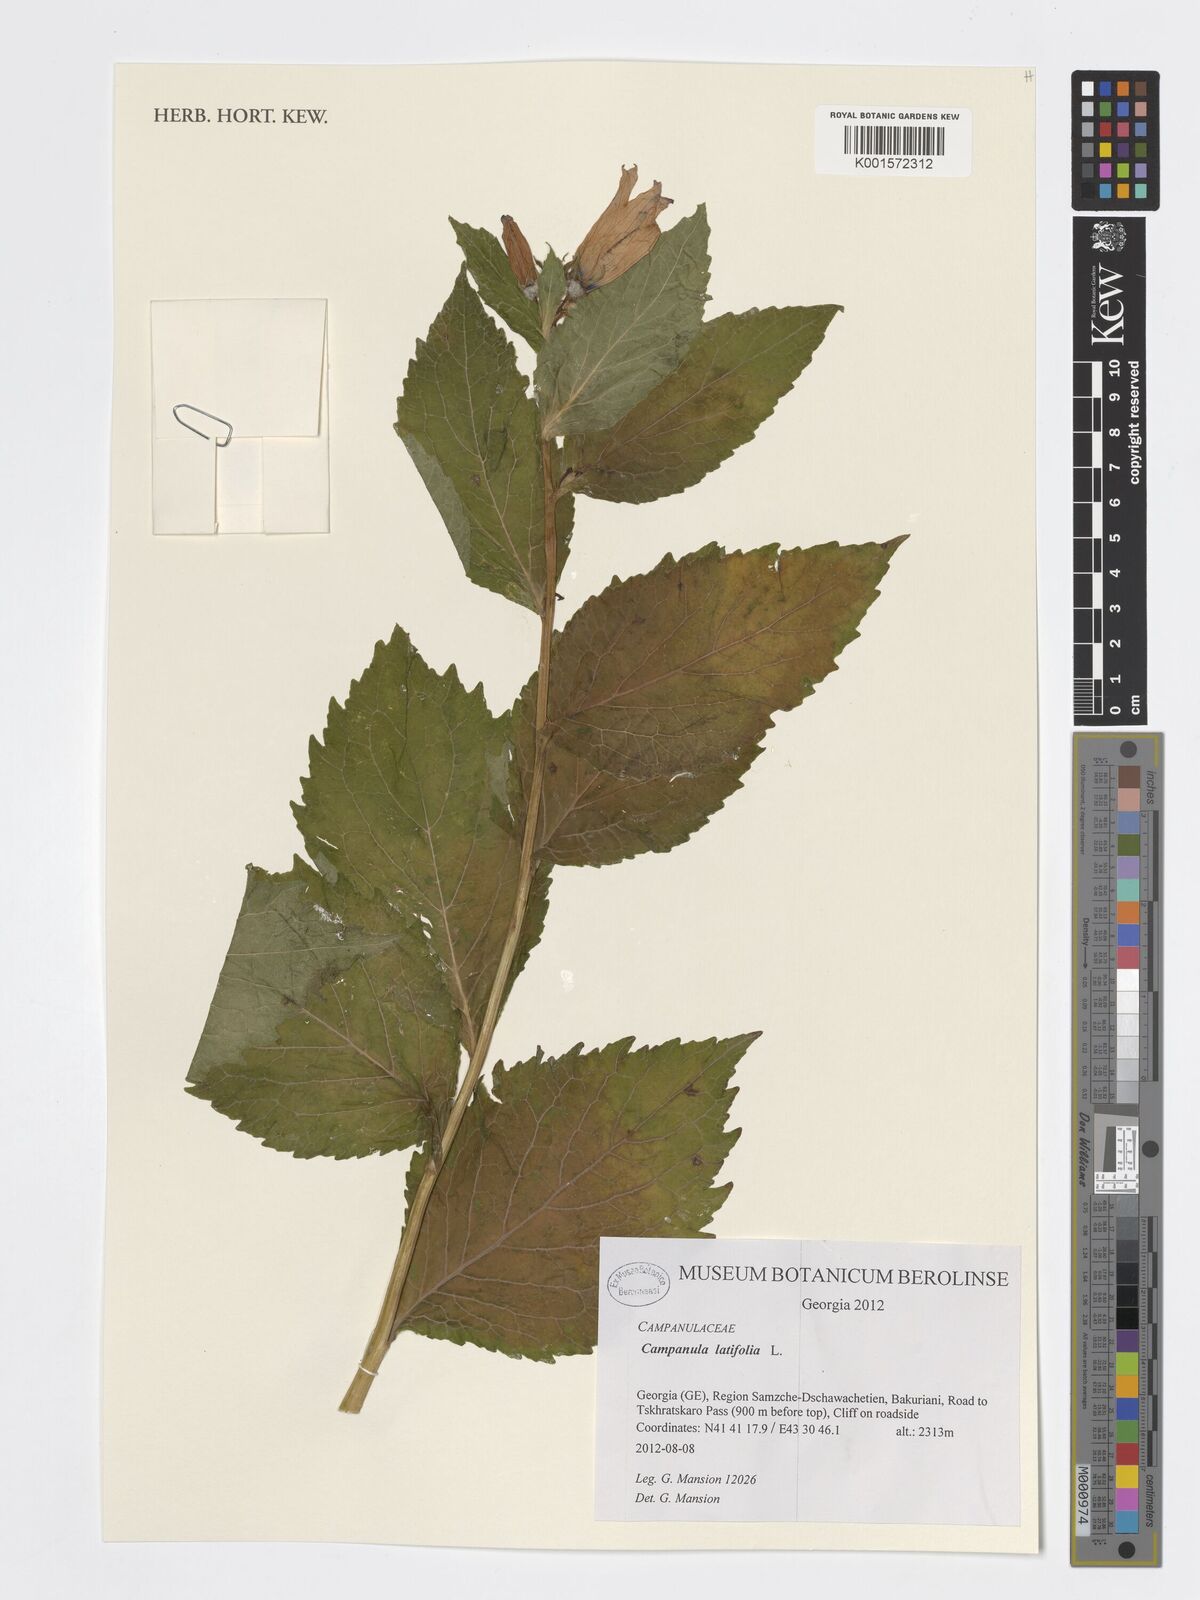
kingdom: Plantae
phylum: Tracheophyta
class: Magnoliopsida
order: Asterales
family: Campanulaceae
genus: Campanula
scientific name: Campanula latifolia
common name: Giant bellflower
